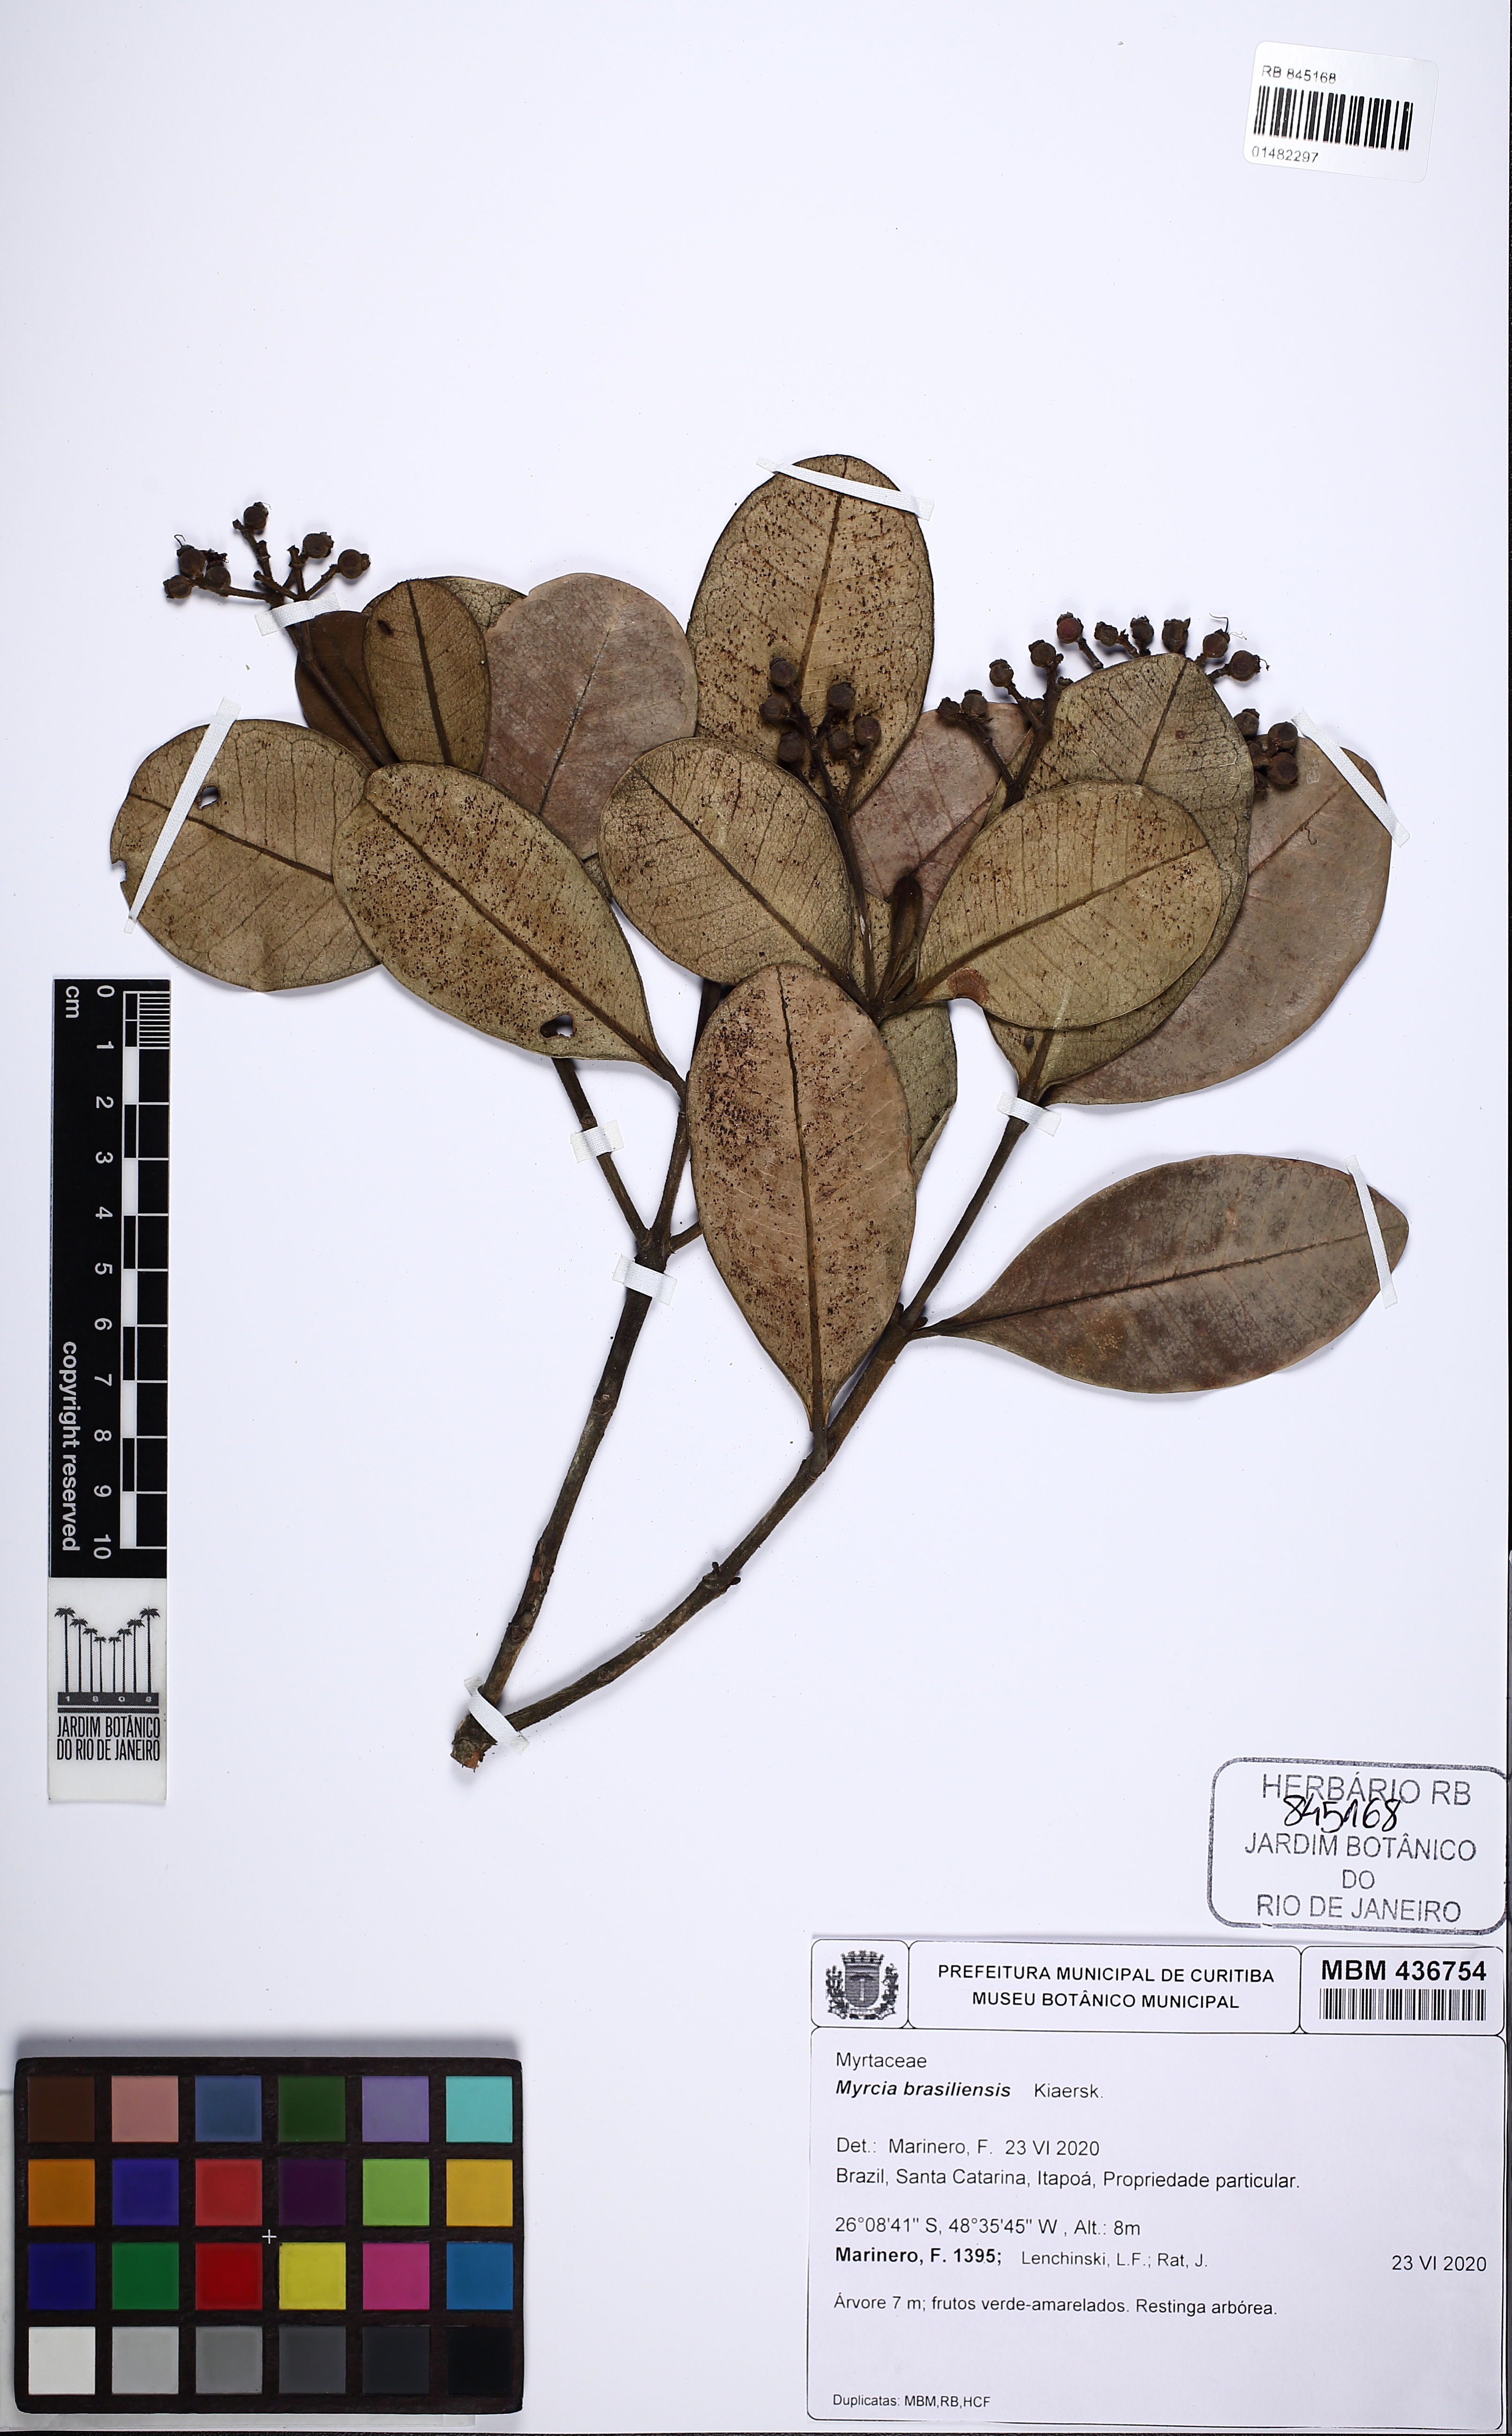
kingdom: Plantae
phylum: Tracheophyta
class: Magnoliopsida
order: Myrtales
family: Myrtaceae
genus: Myrcia
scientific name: Myrcia freyreissiana
